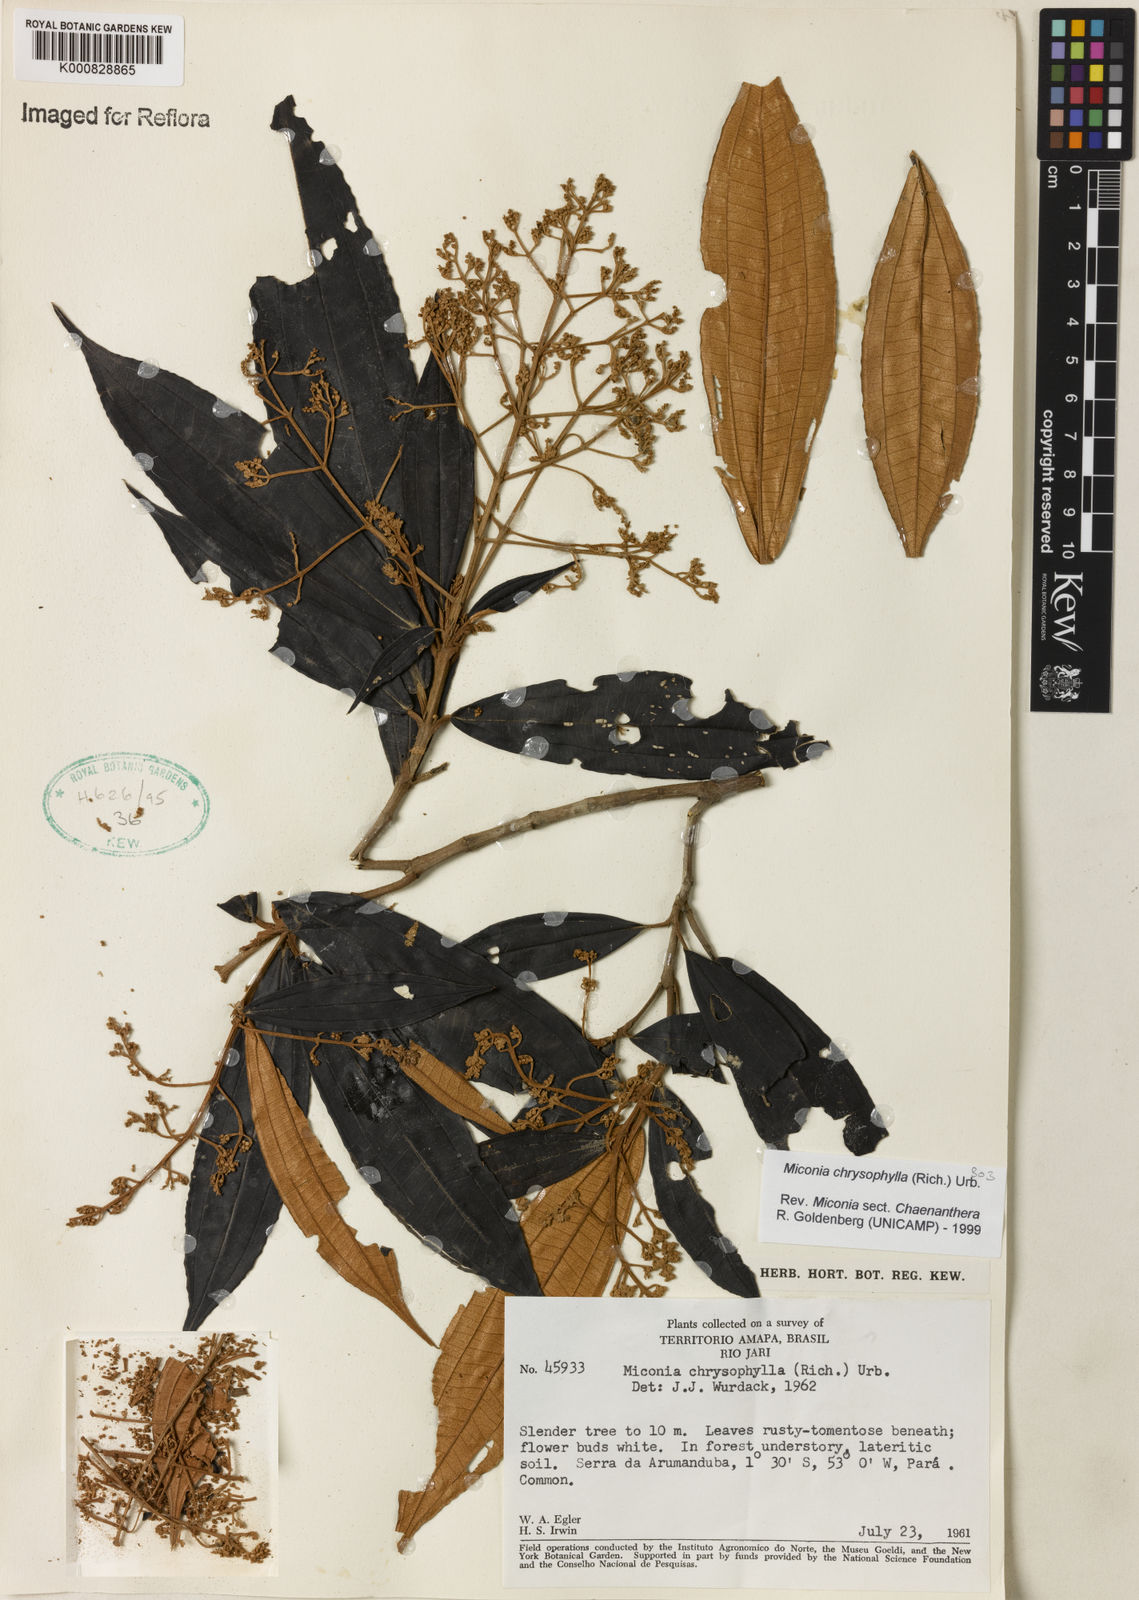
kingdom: Plantae
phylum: Tracheophyta
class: Magnoliopsida
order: Myrtales
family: Melastomataceae
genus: Miconia
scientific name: Miconia chrysophylla
